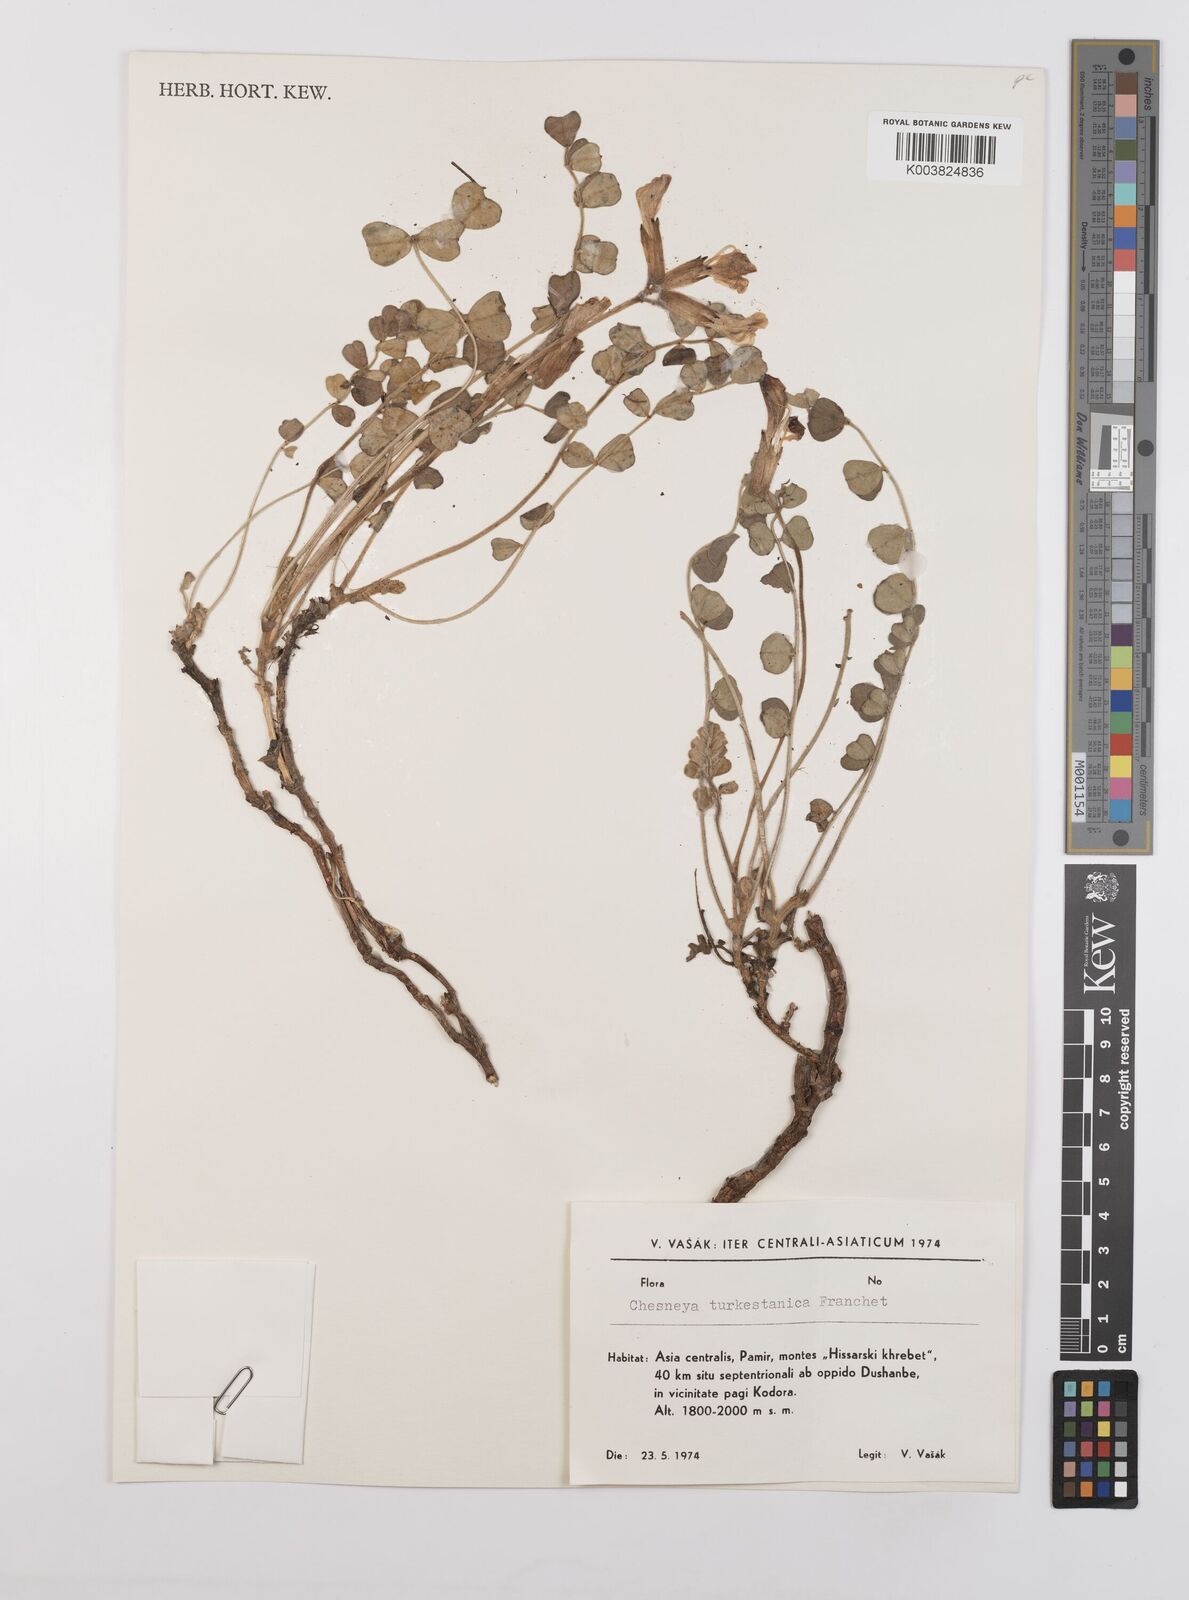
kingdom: Plantae
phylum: Tracheophyta
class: Magnoliopsida
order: Fabales
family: Fabaceae
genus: Chesneya
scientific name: Chesneya turkestanica
